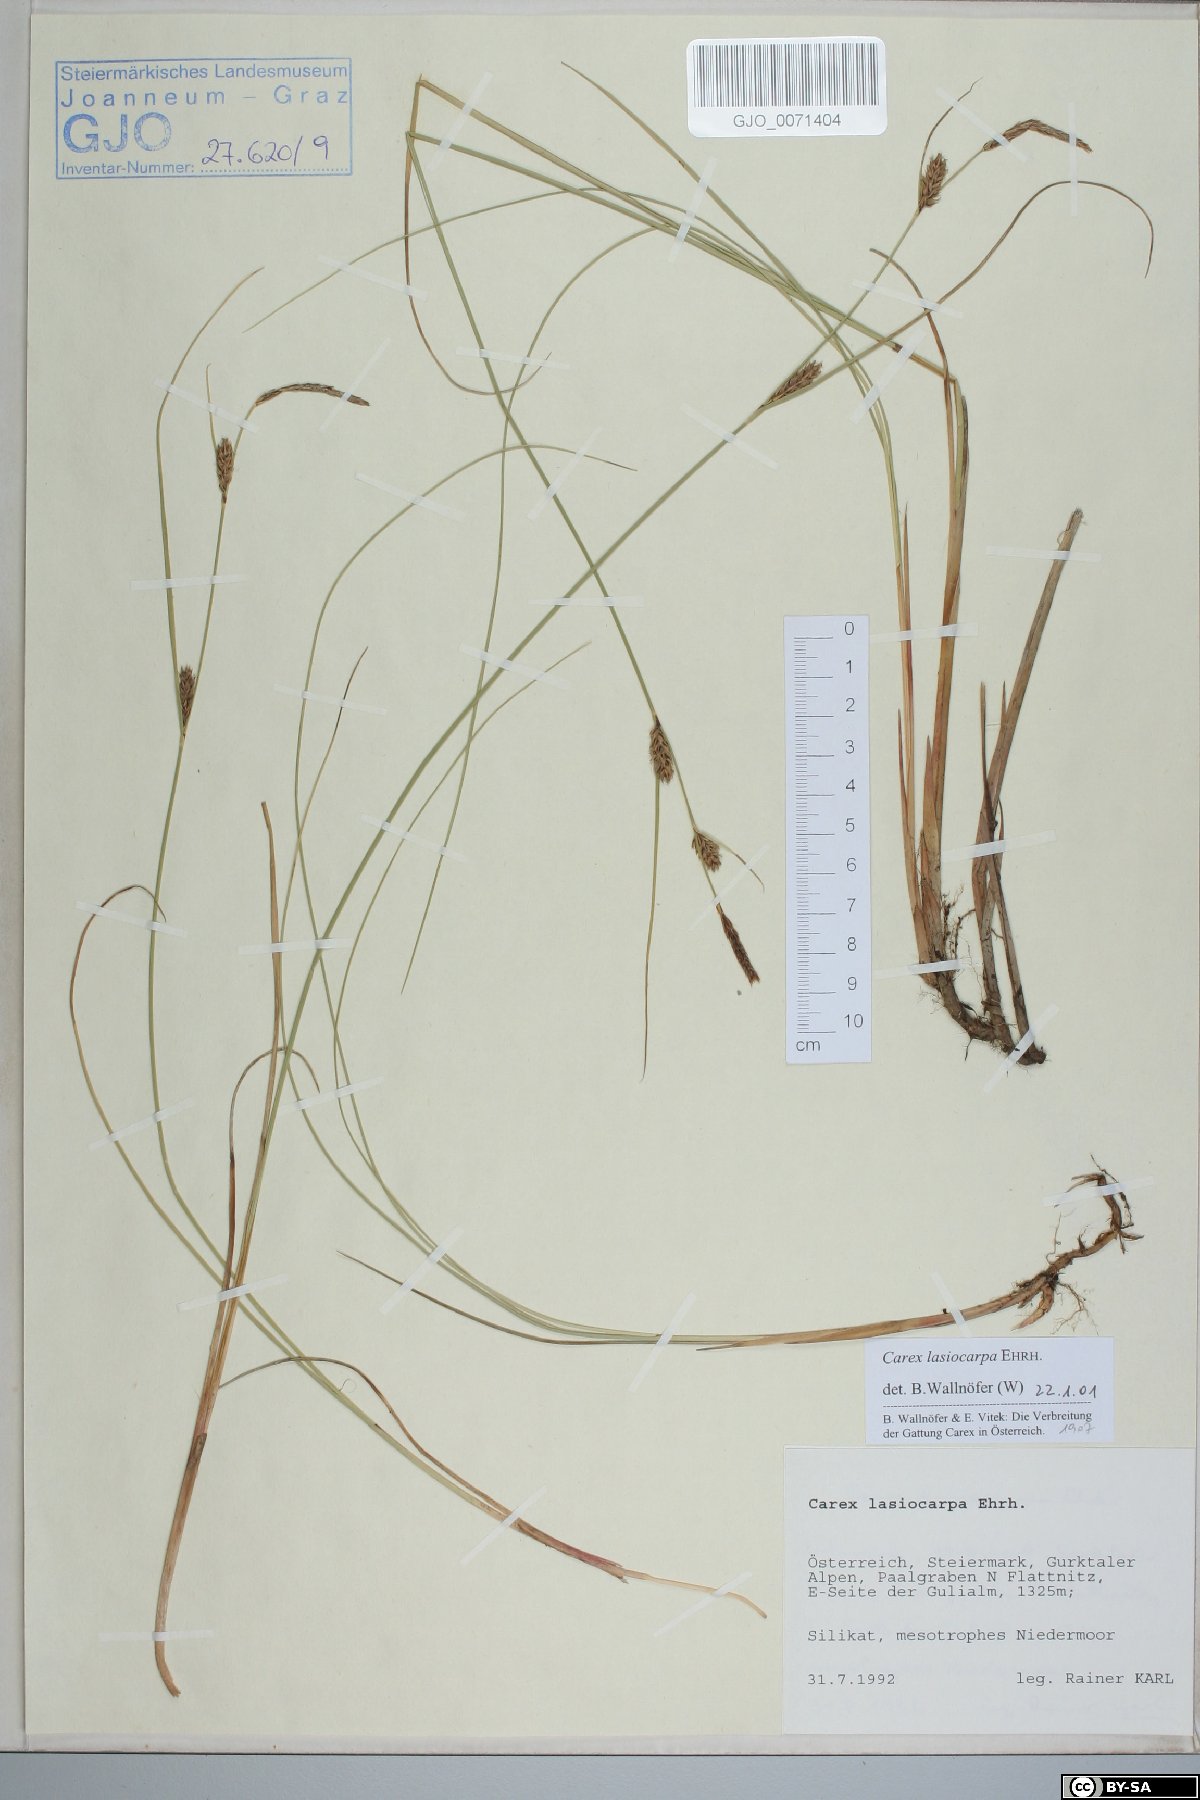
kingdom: Plantae
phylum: Tracheophyta
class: Liliopsida
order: Poales
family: Cyperaceae
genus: Carex
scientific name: Carex lasiocarpa
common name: Slender sedge
